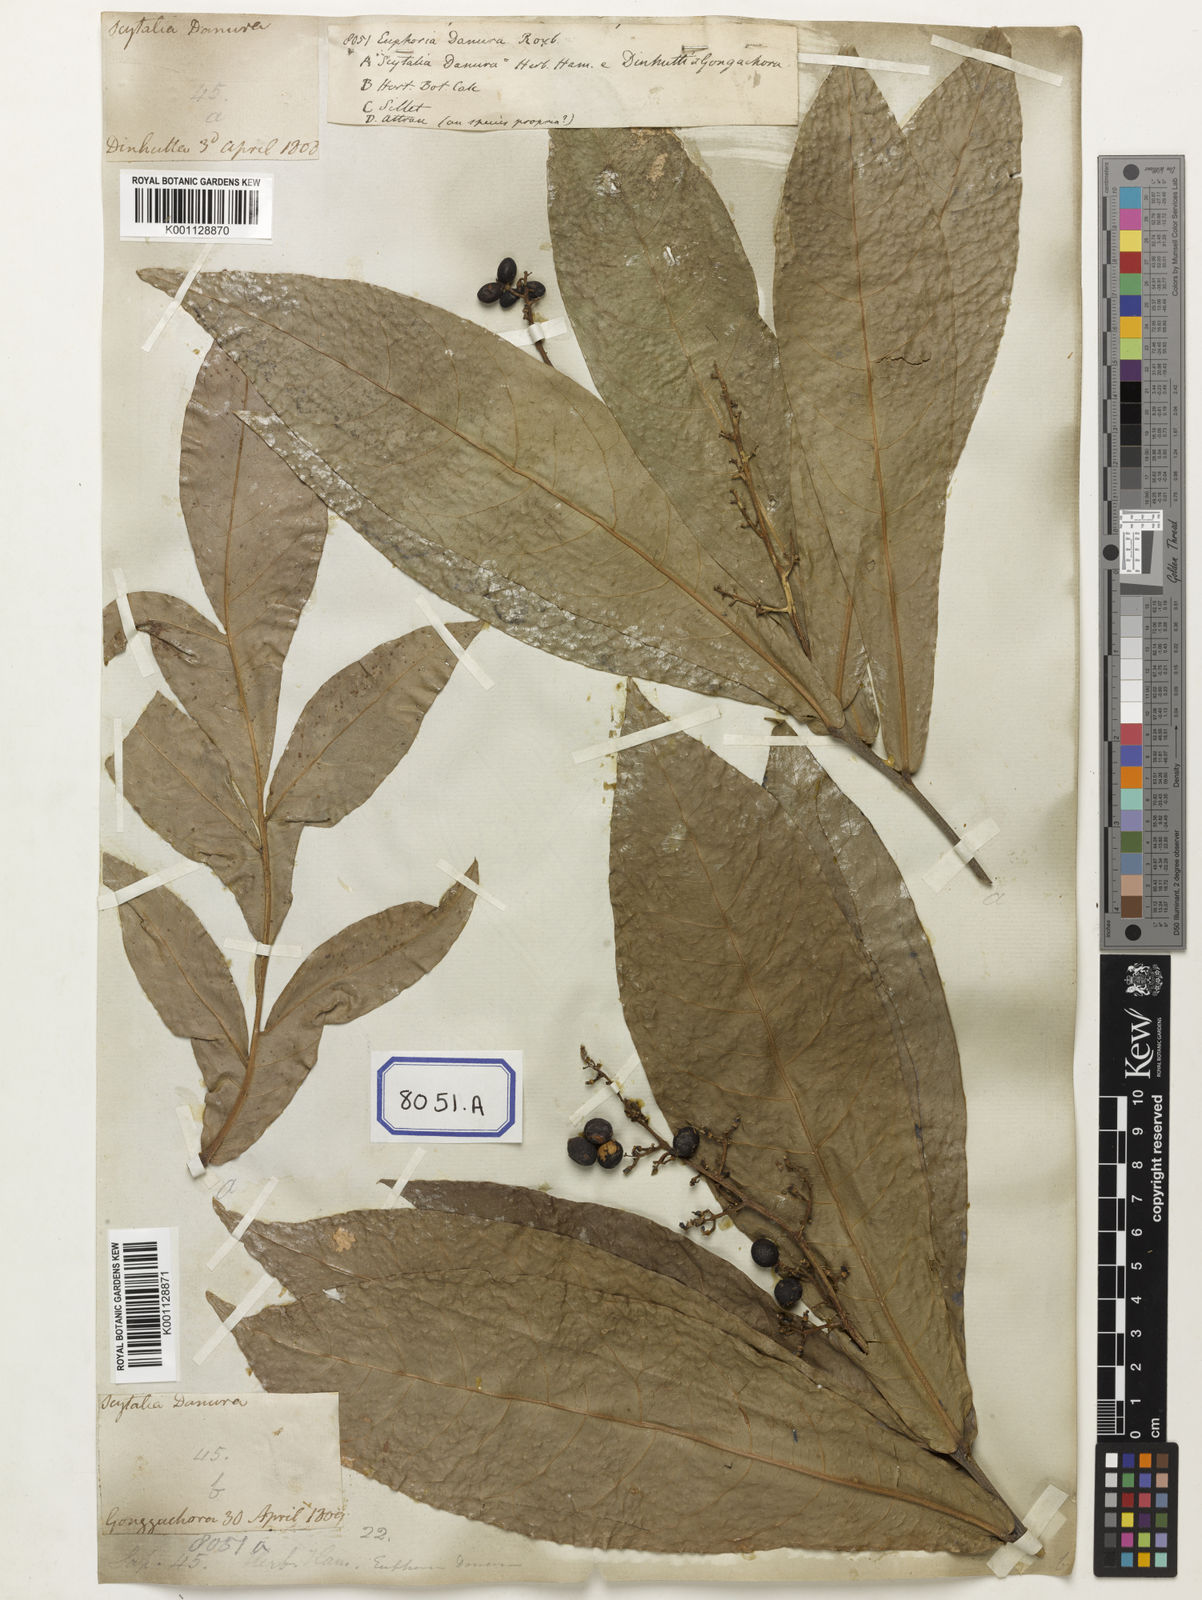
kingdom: Plantae
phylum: Tracheophyta
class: Magnoliopsida
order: Sapindales
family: Sapindaceae
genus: Lepisanthes
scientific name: Lepisanthes senegalensis
